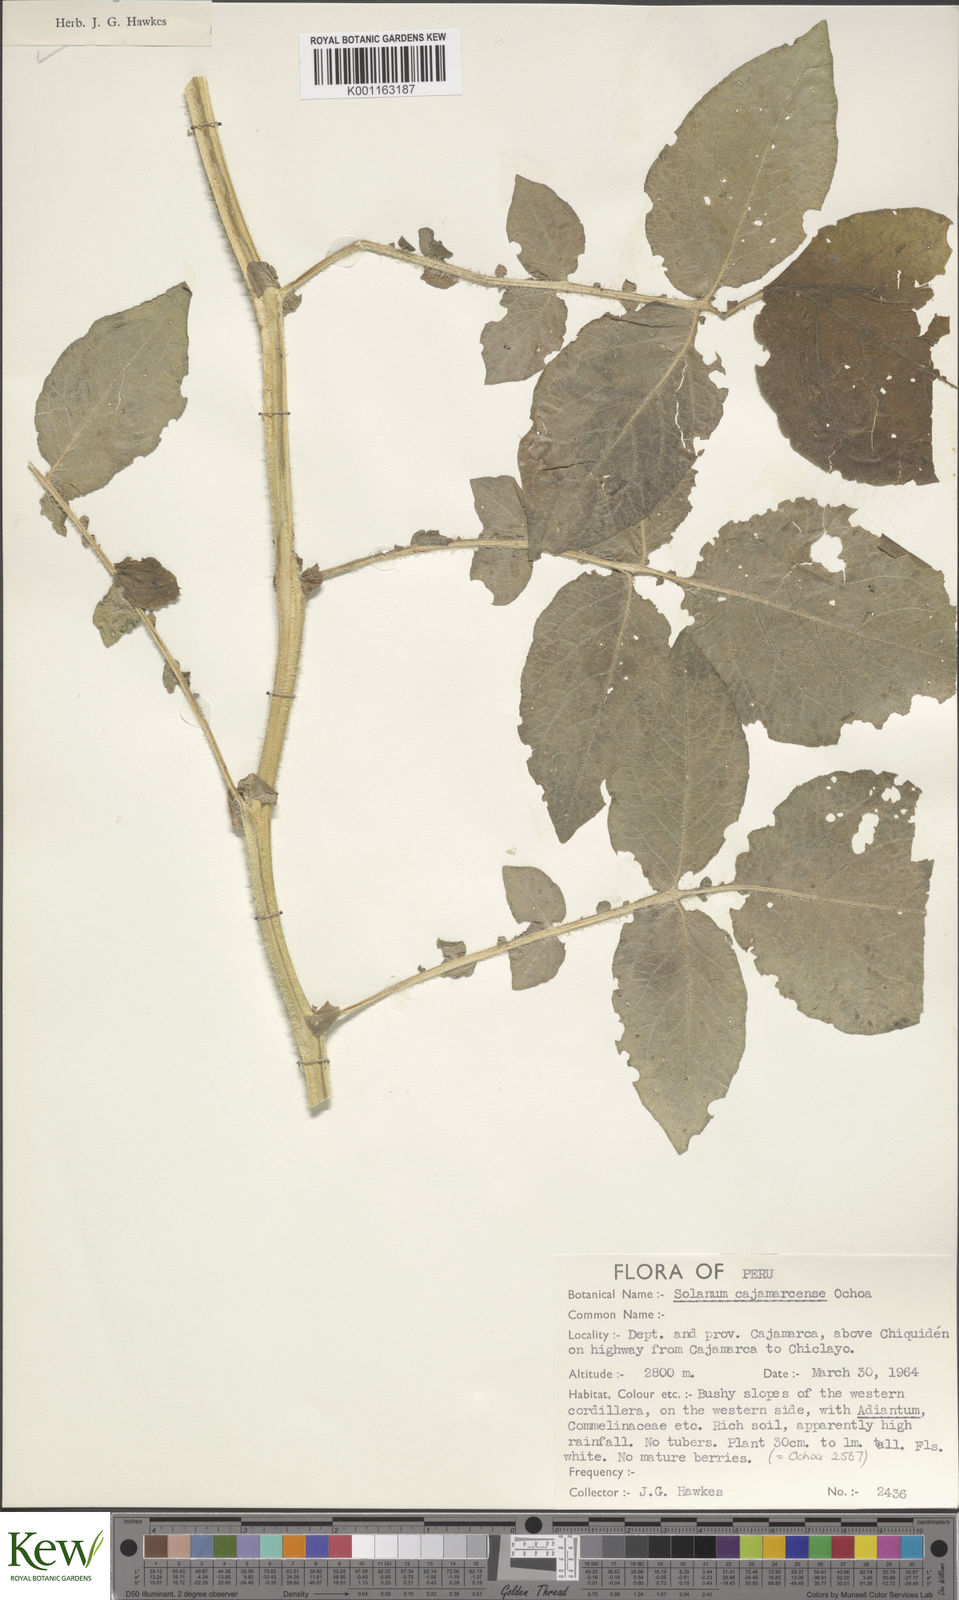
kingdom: Plantae
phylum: Tracheophyta
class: Magnoliopsida
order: Solanales
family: Solanaceae
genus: Solanum
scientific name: Solanum cajamarquense
